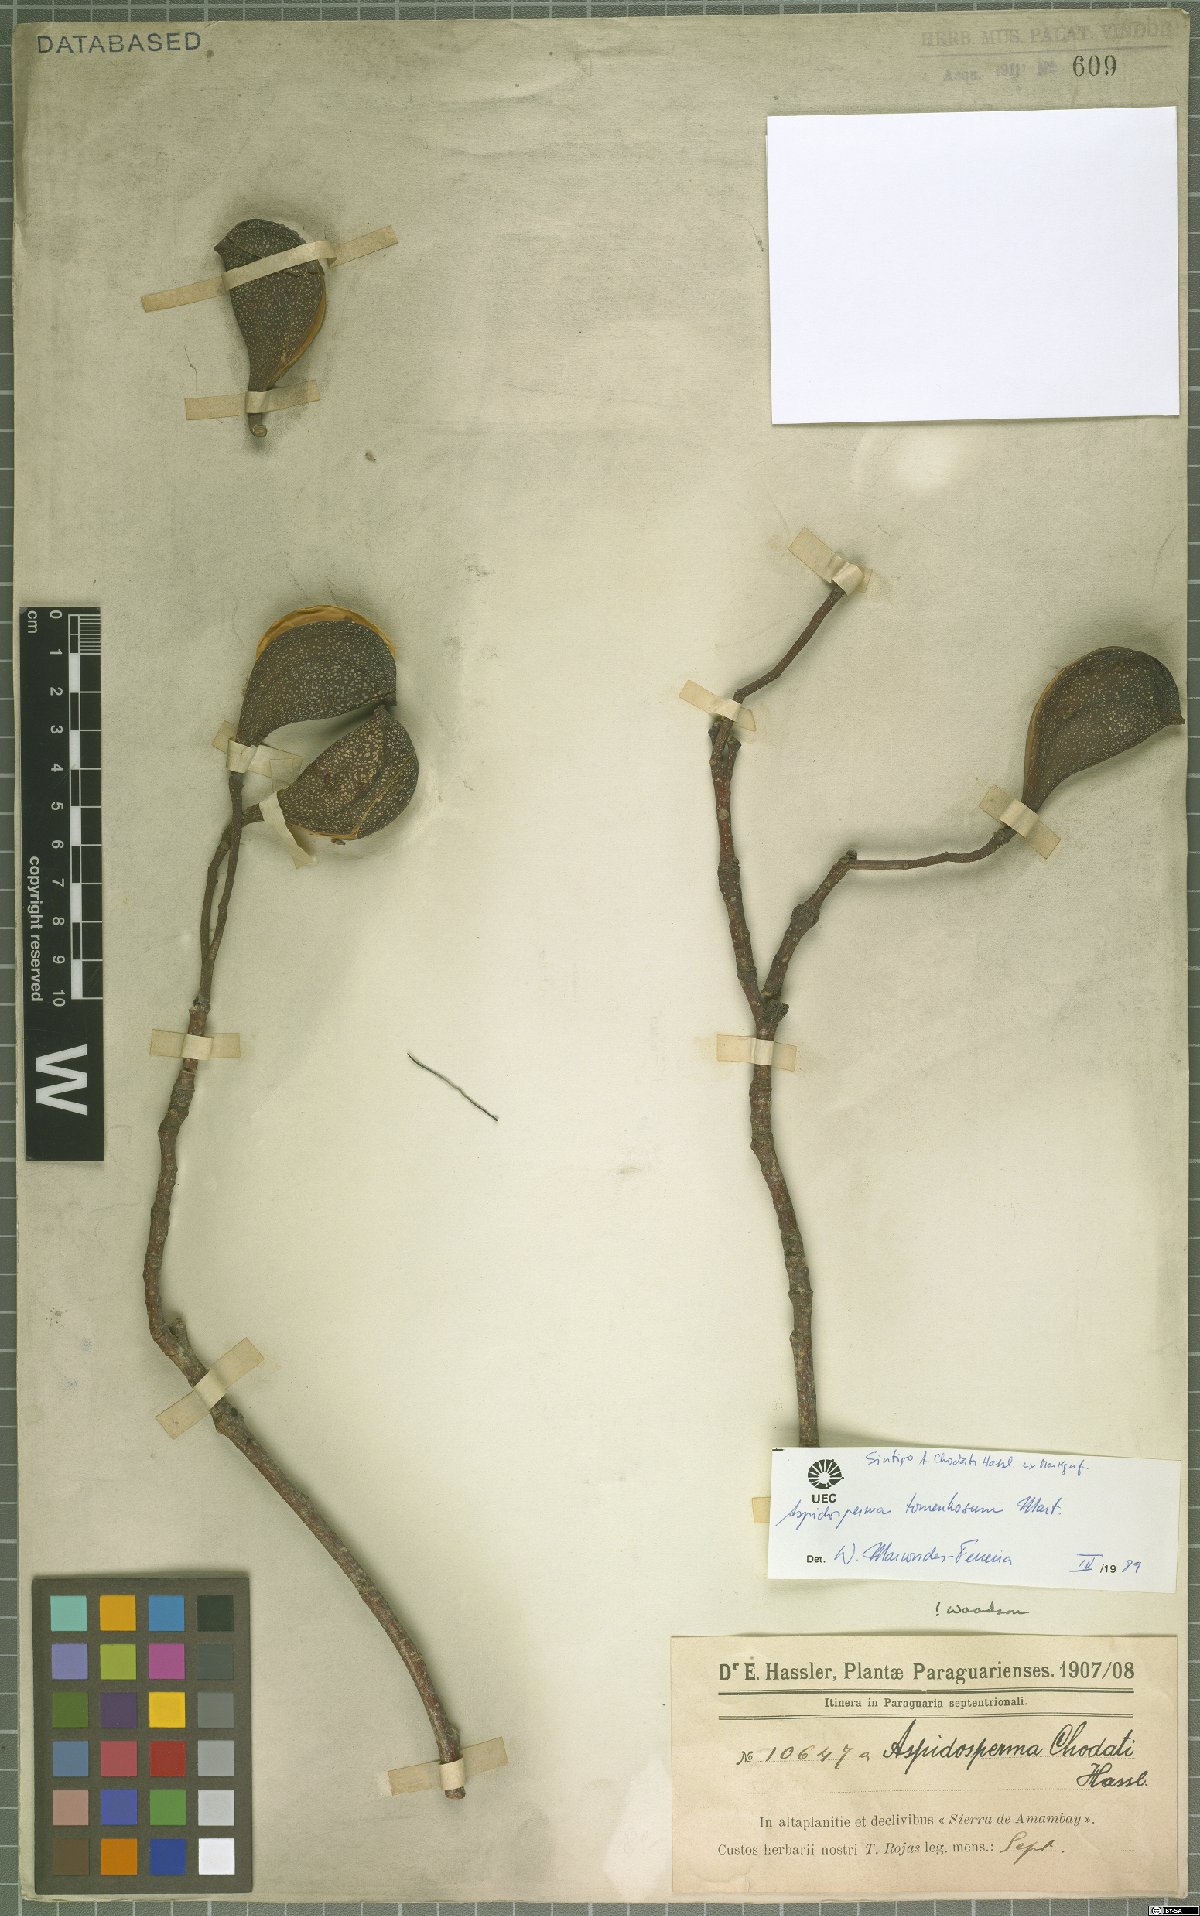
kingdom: Plantae
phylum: Tracheophyta
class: Magnoliopsida
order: Gentianales
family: Apocynaceae
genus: Aspidosperma
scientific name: Aspidosperma tomentosum
